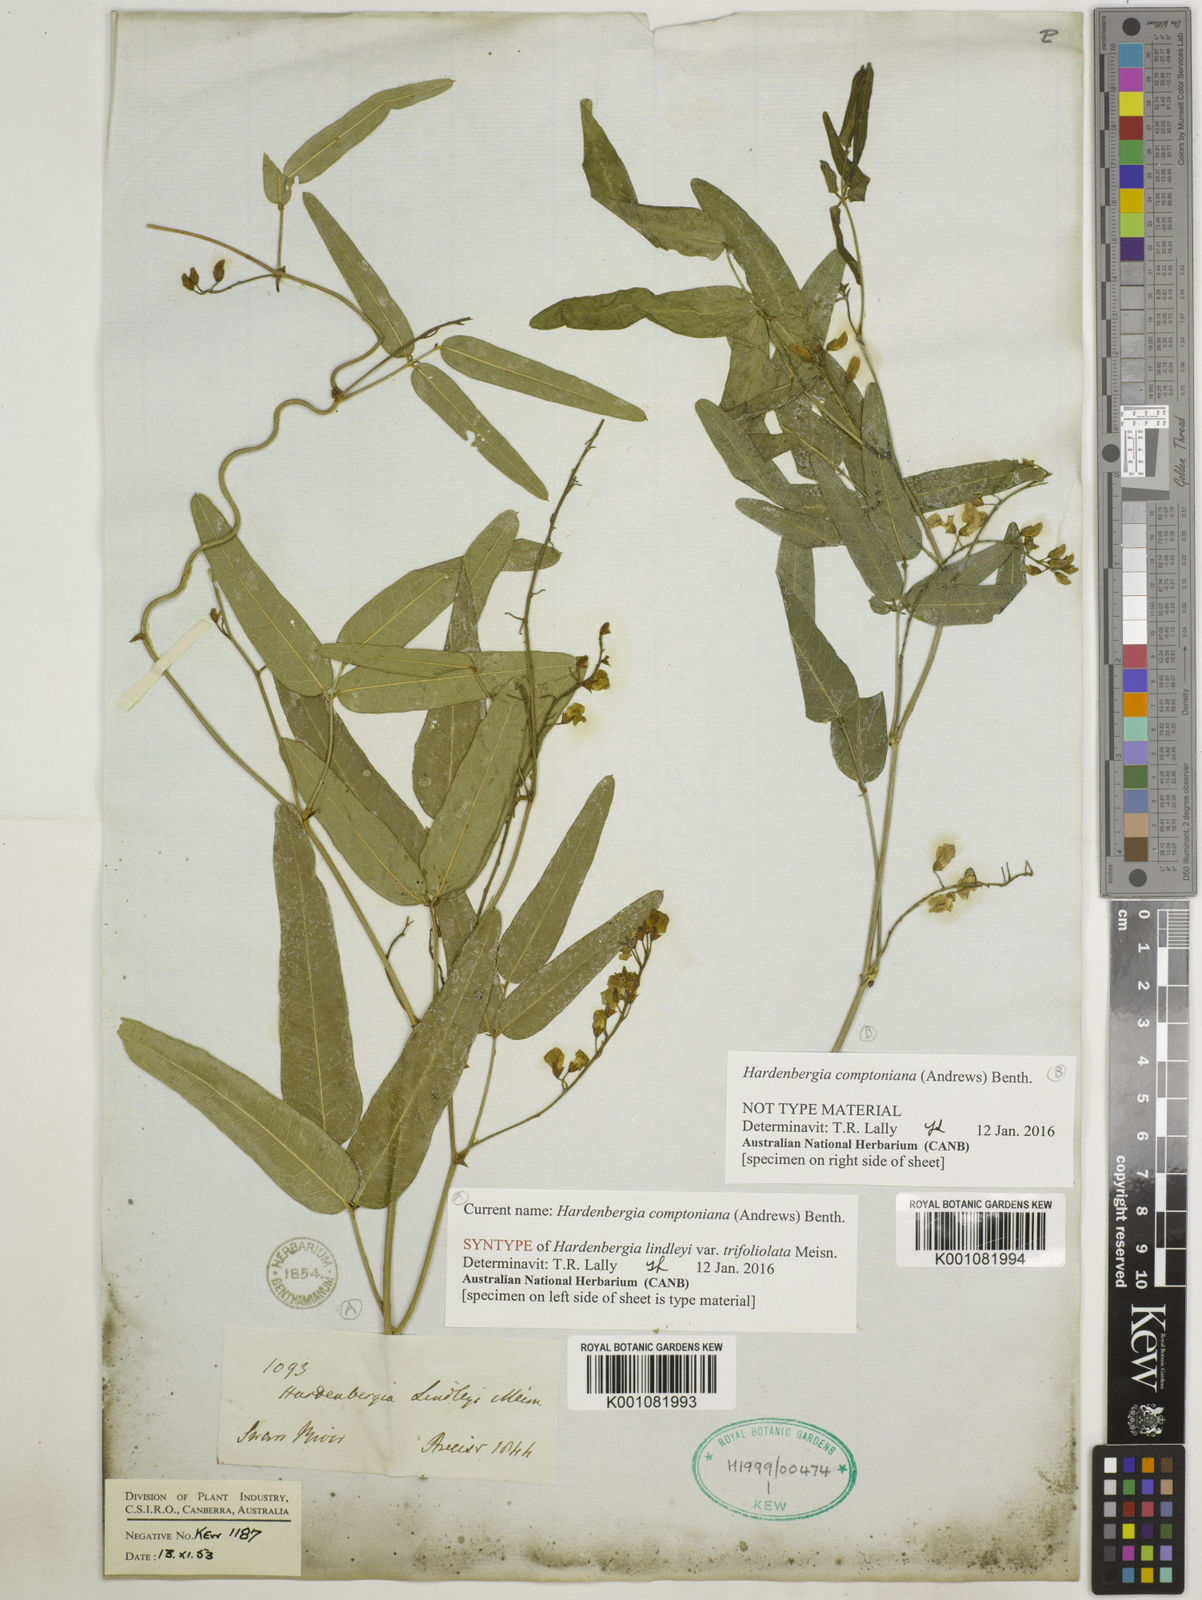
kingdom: Plantae
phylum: Tracheophyta
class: Magnoliopsida
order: Fabales
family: Fabaceae
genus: Hardenbergia
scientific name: Hardenbergia comptoniana
